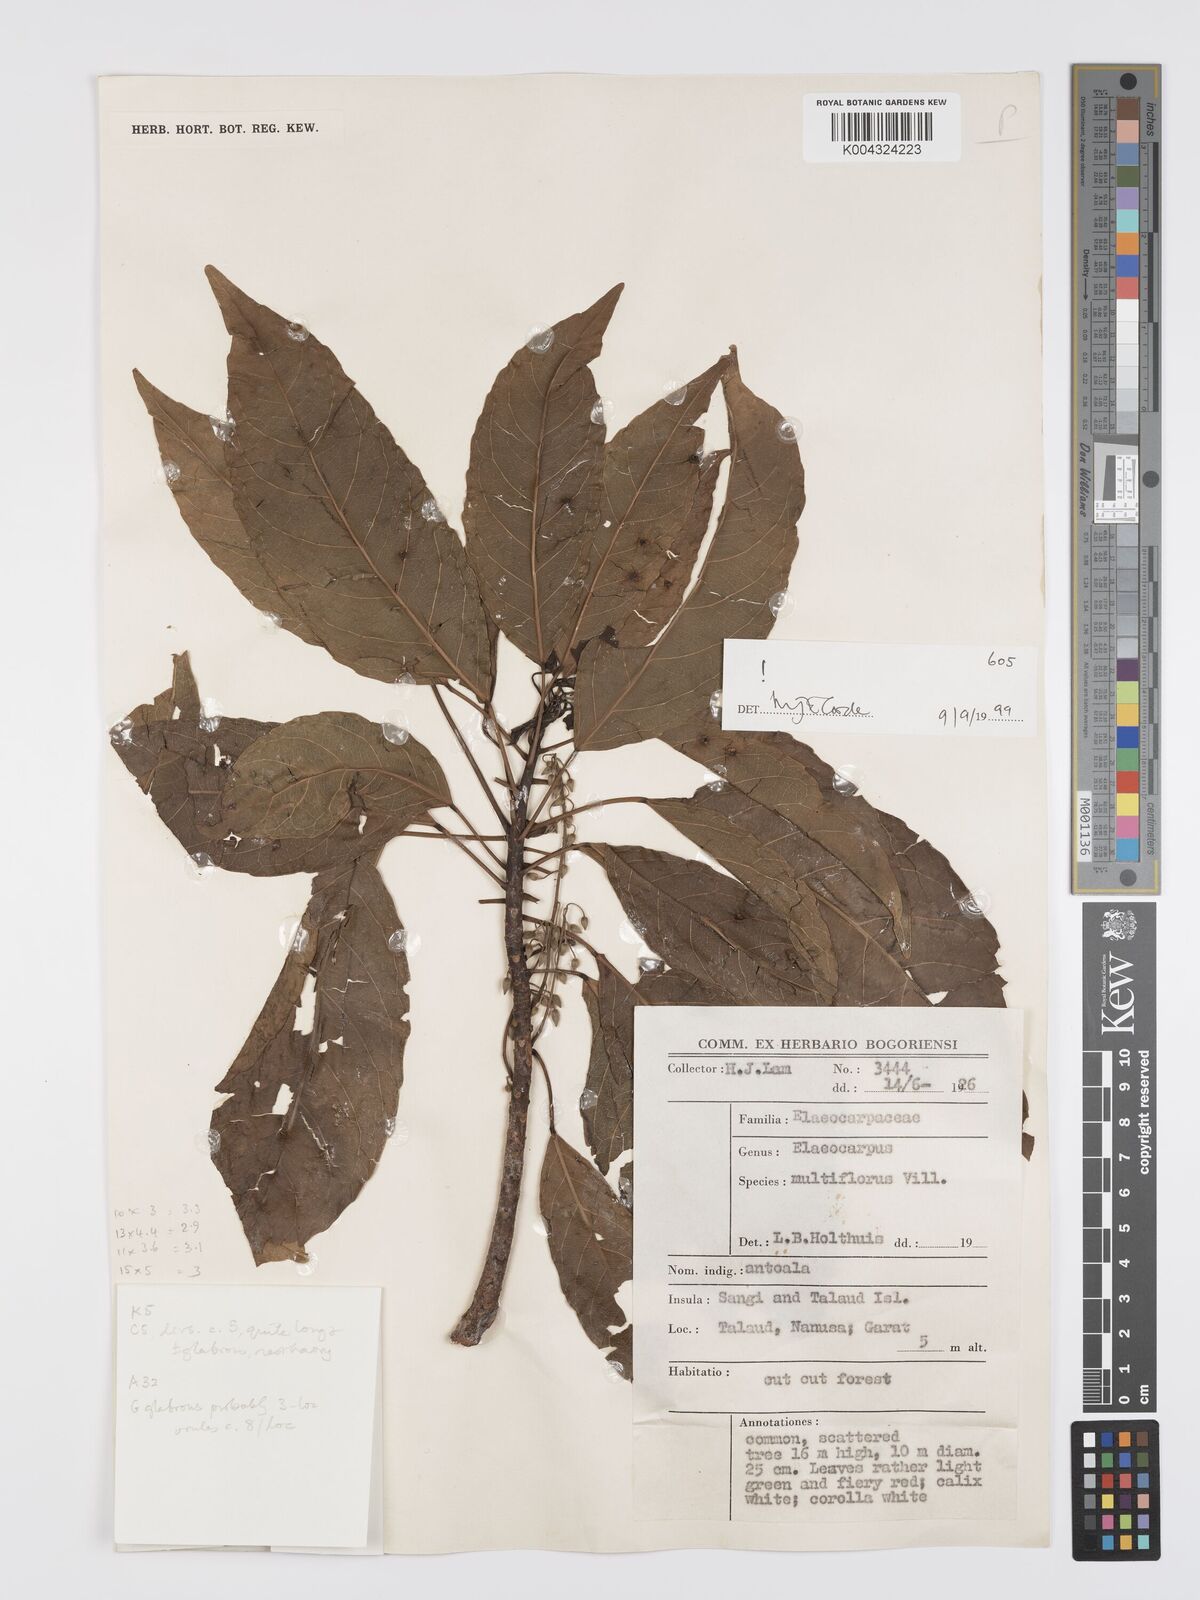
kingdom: Plantae
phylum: Tracheophyta
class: Magnoliopsida
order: Oxalidales
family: Elaeocarpaceae
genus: Elaeocarpus
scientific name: Elaeocarpus multiflorus
